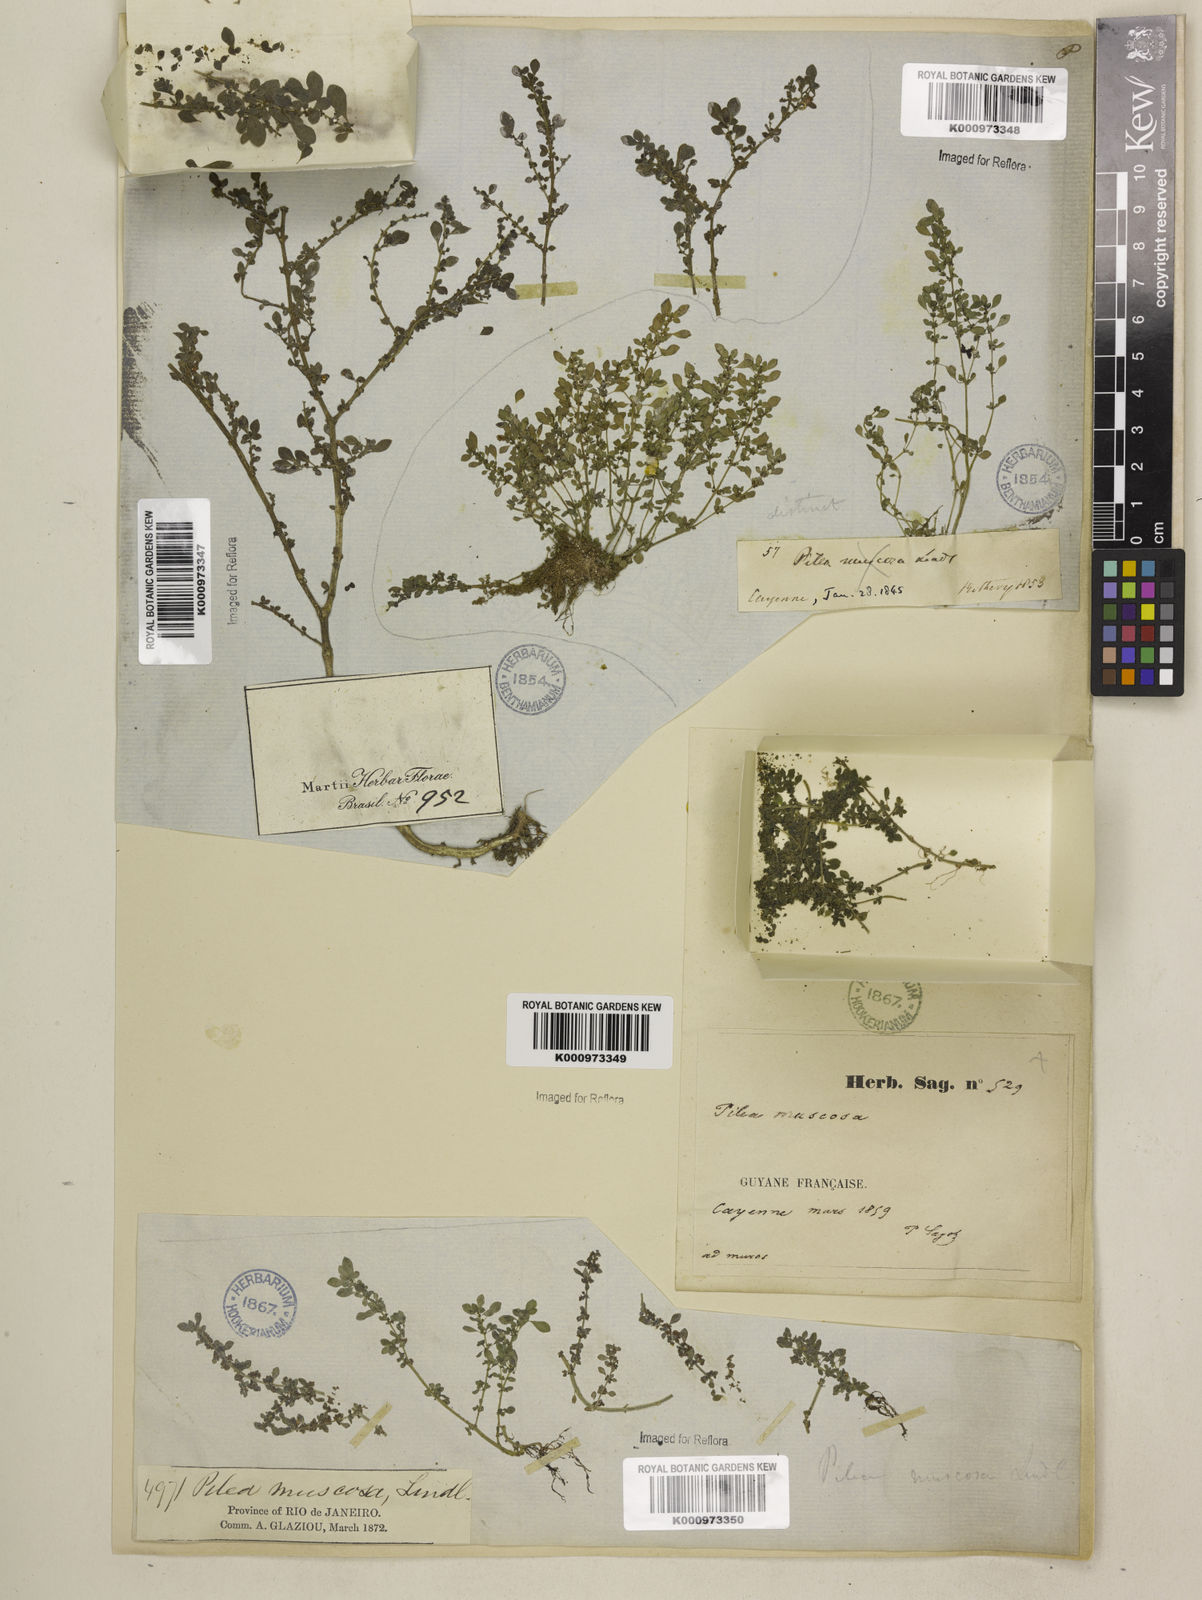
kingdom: Plantae
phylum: Tracheophyta
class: Magnoliopsida
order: Rosales
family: Urticaceae
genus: Pilea
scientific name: Pilea microphylla
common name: Artillery-plant
